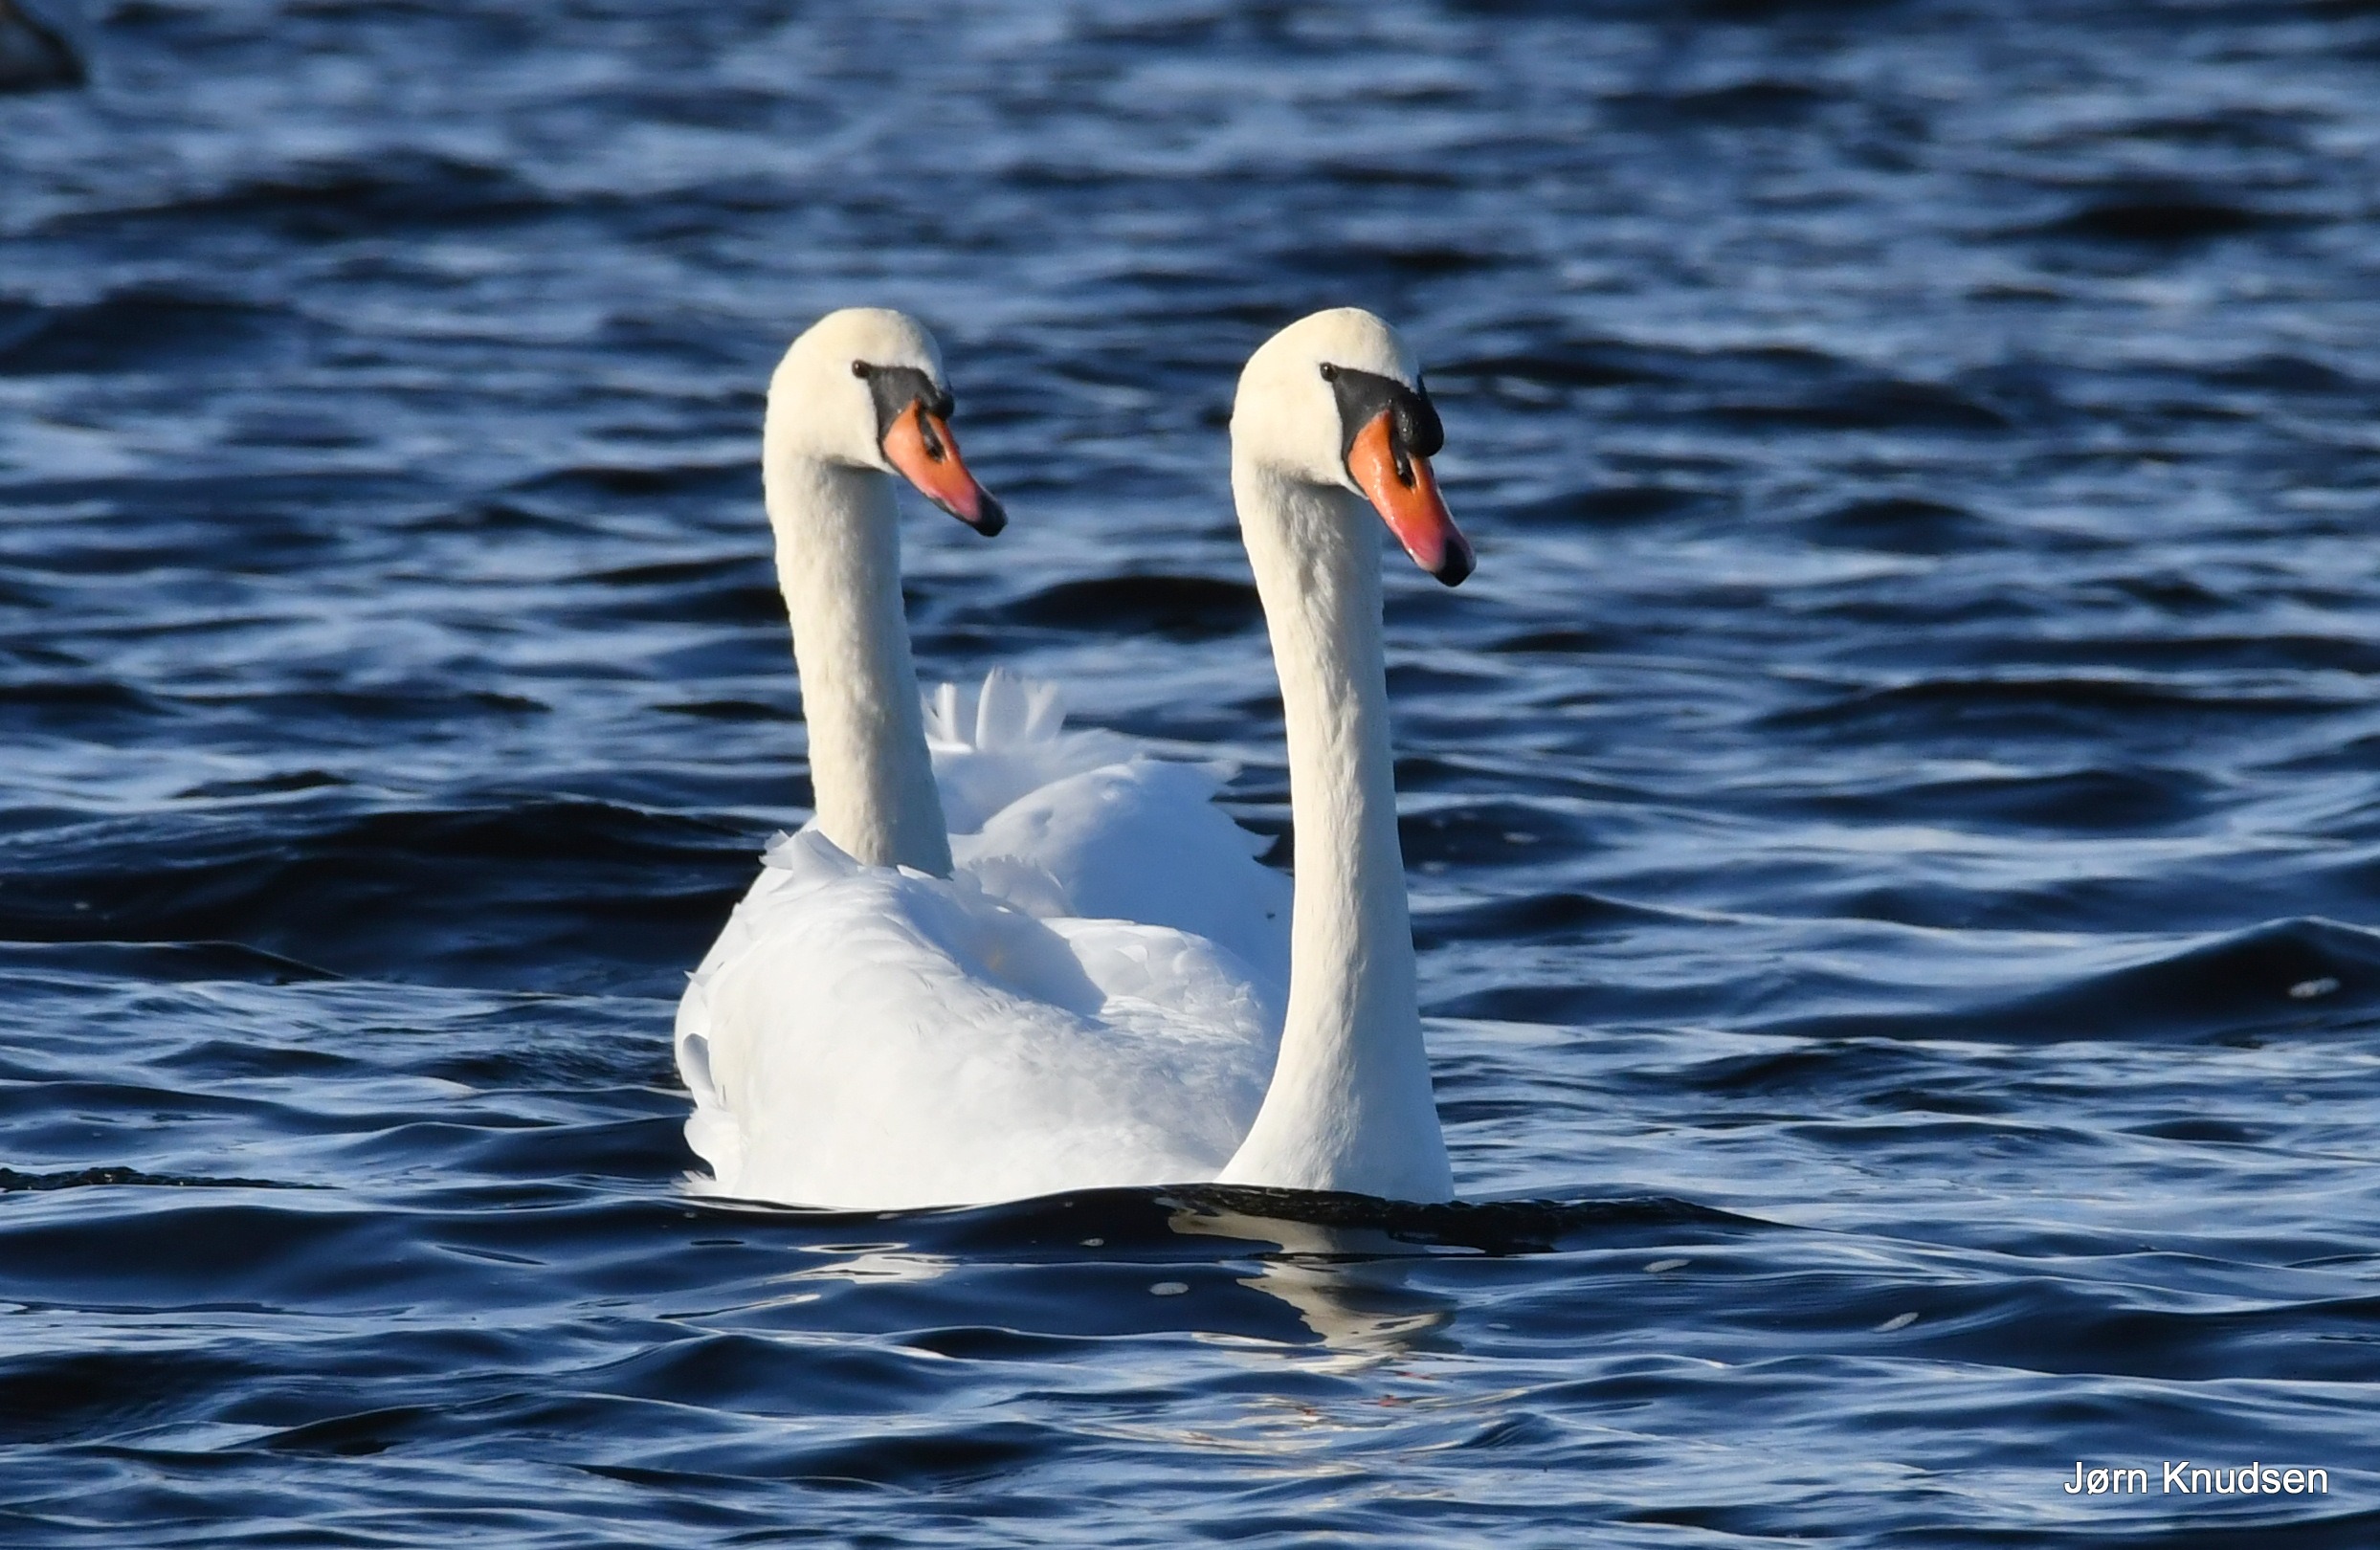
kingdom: Animalia
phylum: Chordata
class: Aves
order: Anseriformes
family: Anatidae
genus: Cygnus
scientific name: Cygnus olor
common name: Knopsvane
